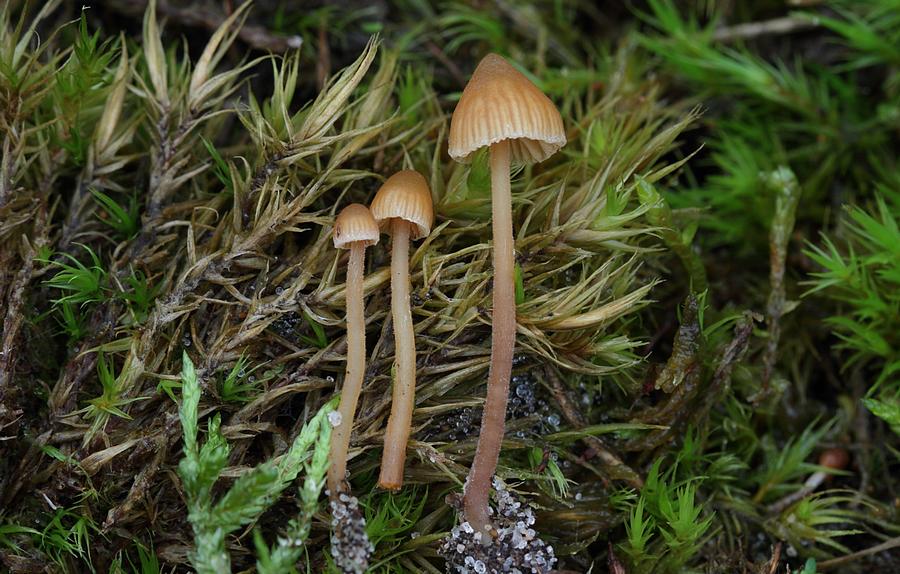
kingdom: Fungi
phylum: Basidiomycota
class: Agaricomycetes
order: Agaricales
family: Hymenogastraceae
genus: Galerina
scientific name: Galerina atkinsoniana
